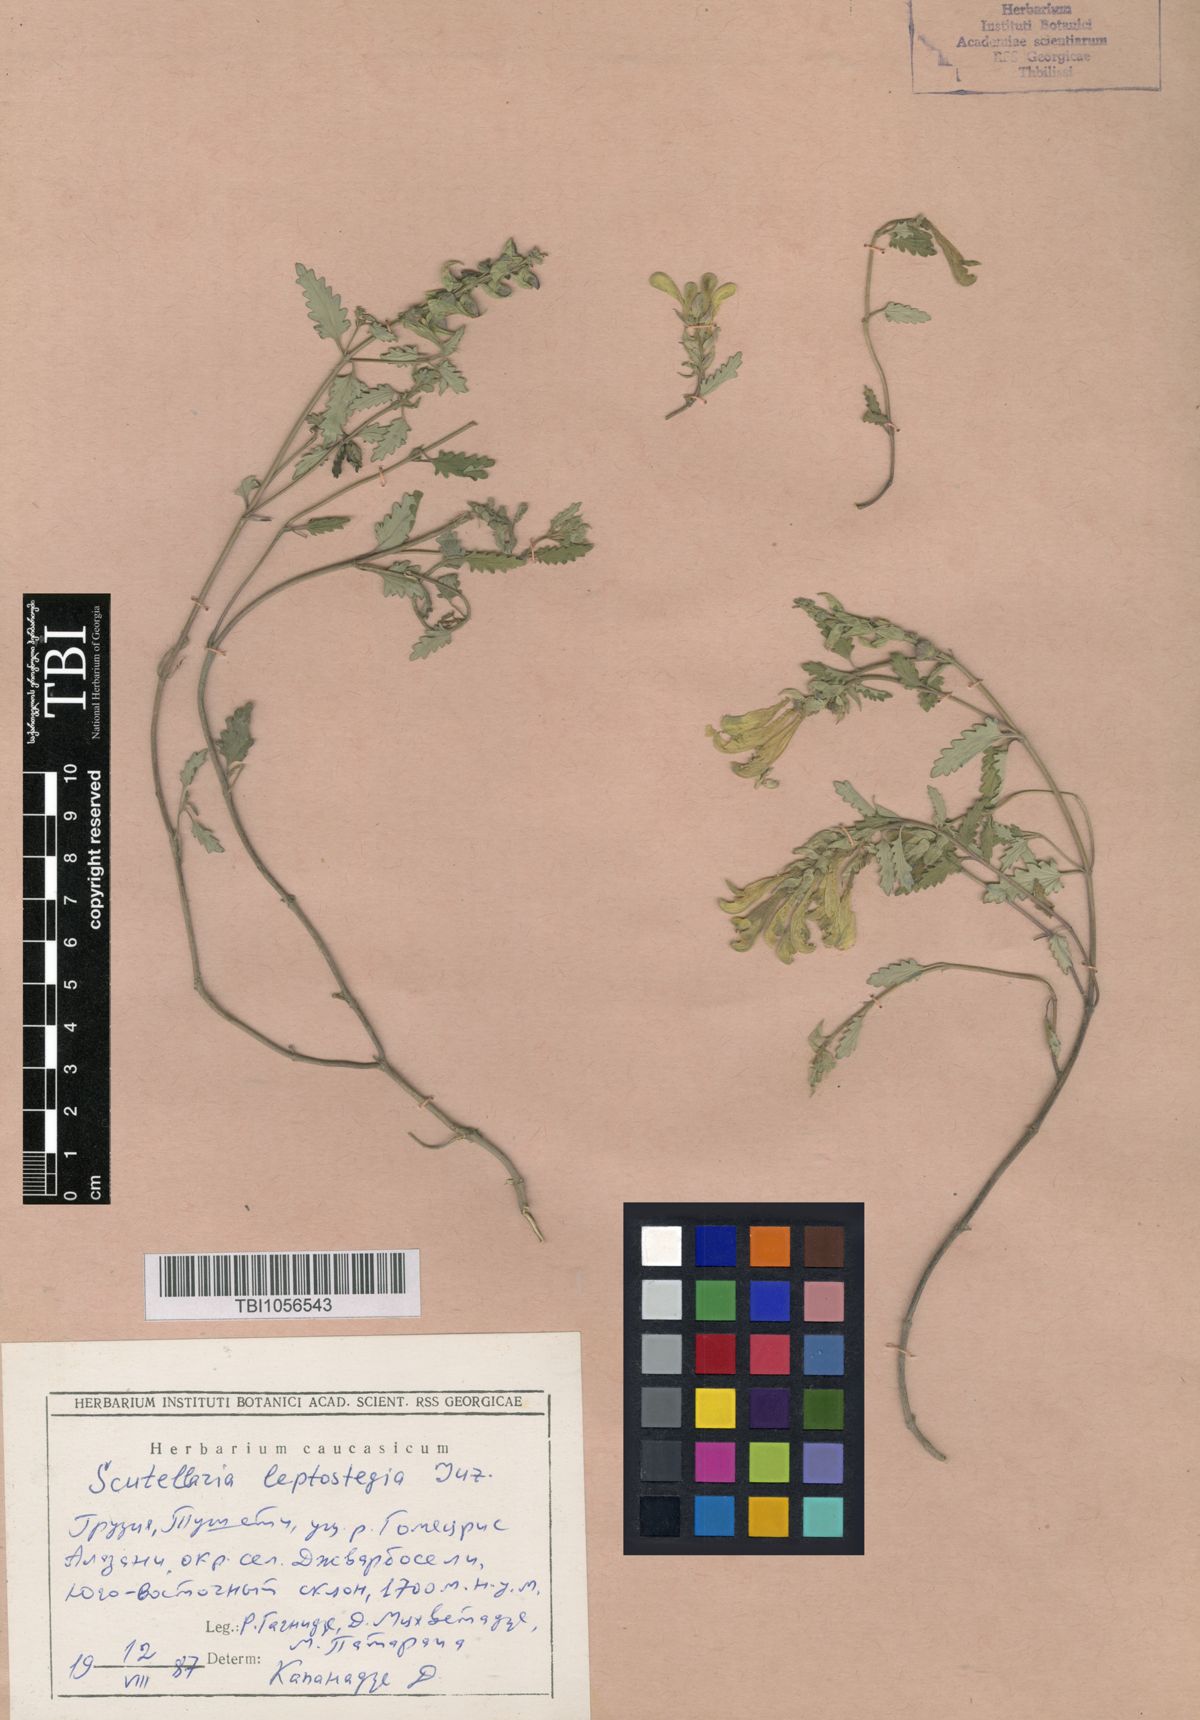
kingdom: Plantae
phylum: Tracheophyta
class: Magnoliopsida
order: Lamiales
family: Lamiaceae
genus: Scutellaria
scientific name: Scutellaria leptostegia
